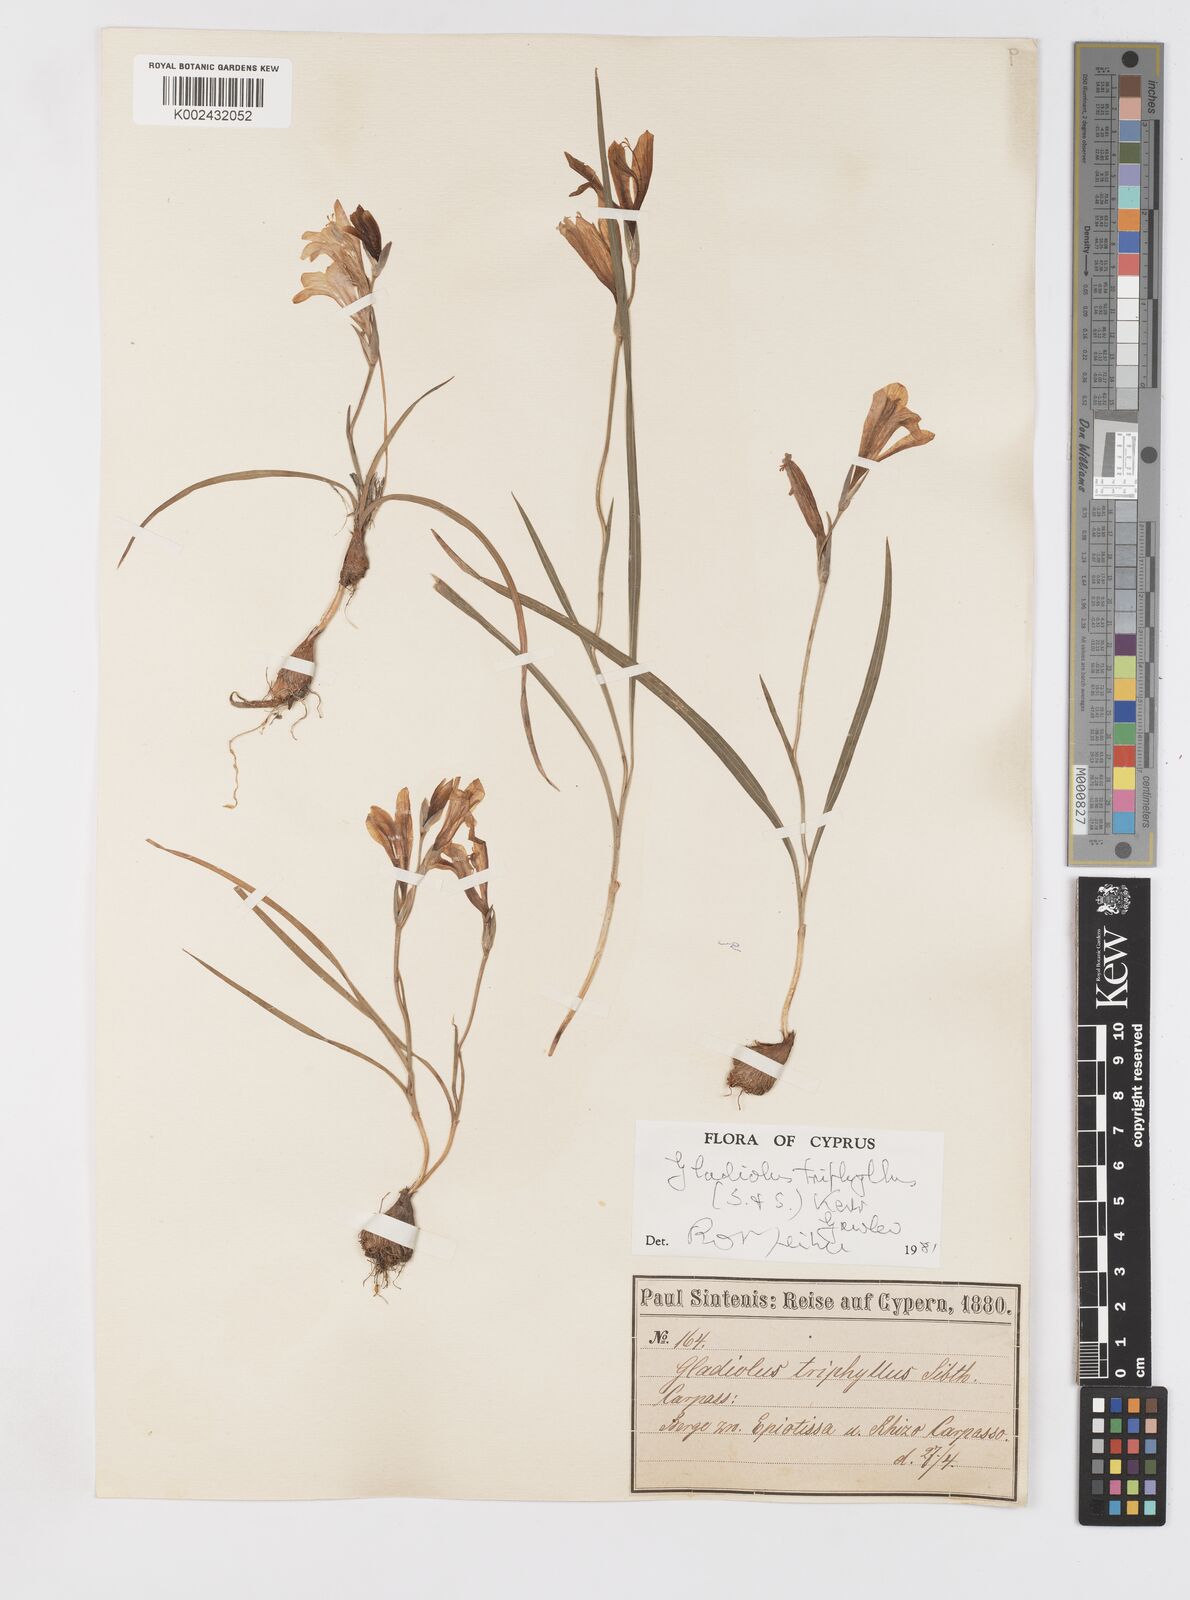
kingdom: Plantae
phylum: Tracheophyta
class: Liliopsida
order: Asparagales
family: Iridaceae
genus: Gladiolus
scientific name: Gladiolus triphyllus
